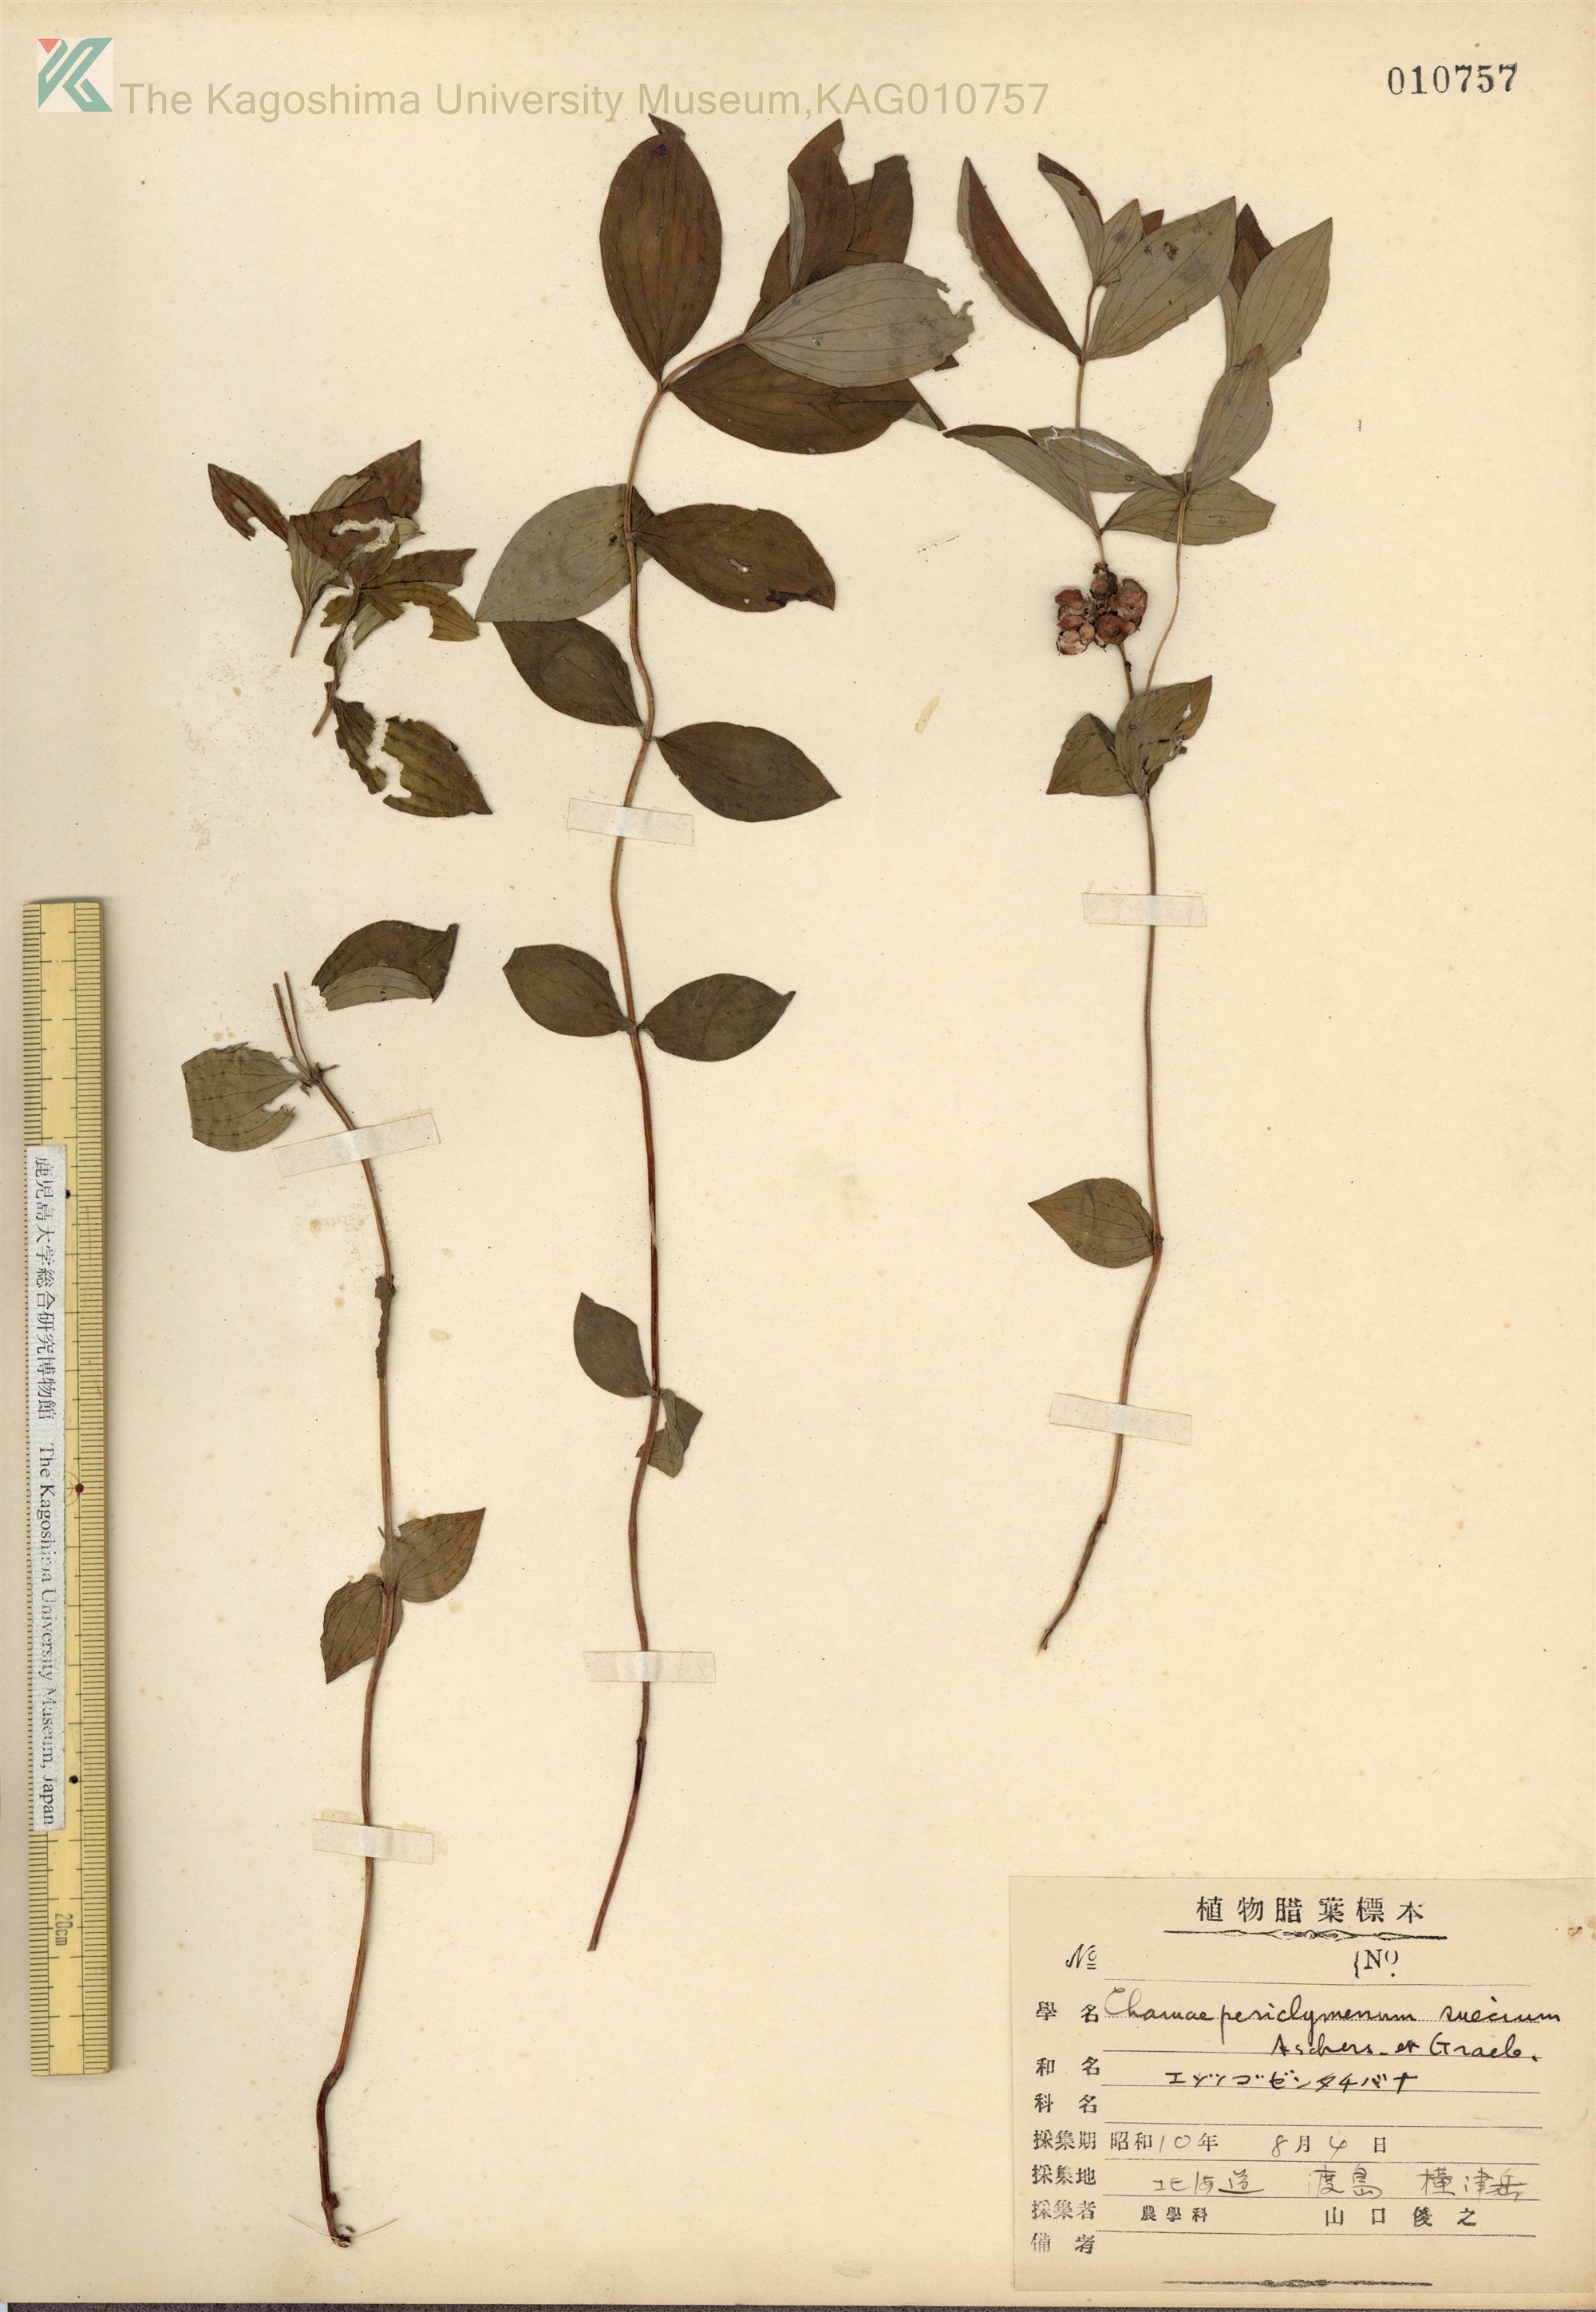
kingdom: Plantae
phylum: Tracheophyta
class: Magnoliopsida
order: Cornales
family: Cornaceae
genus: Cornus
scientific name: Cornus suecica
